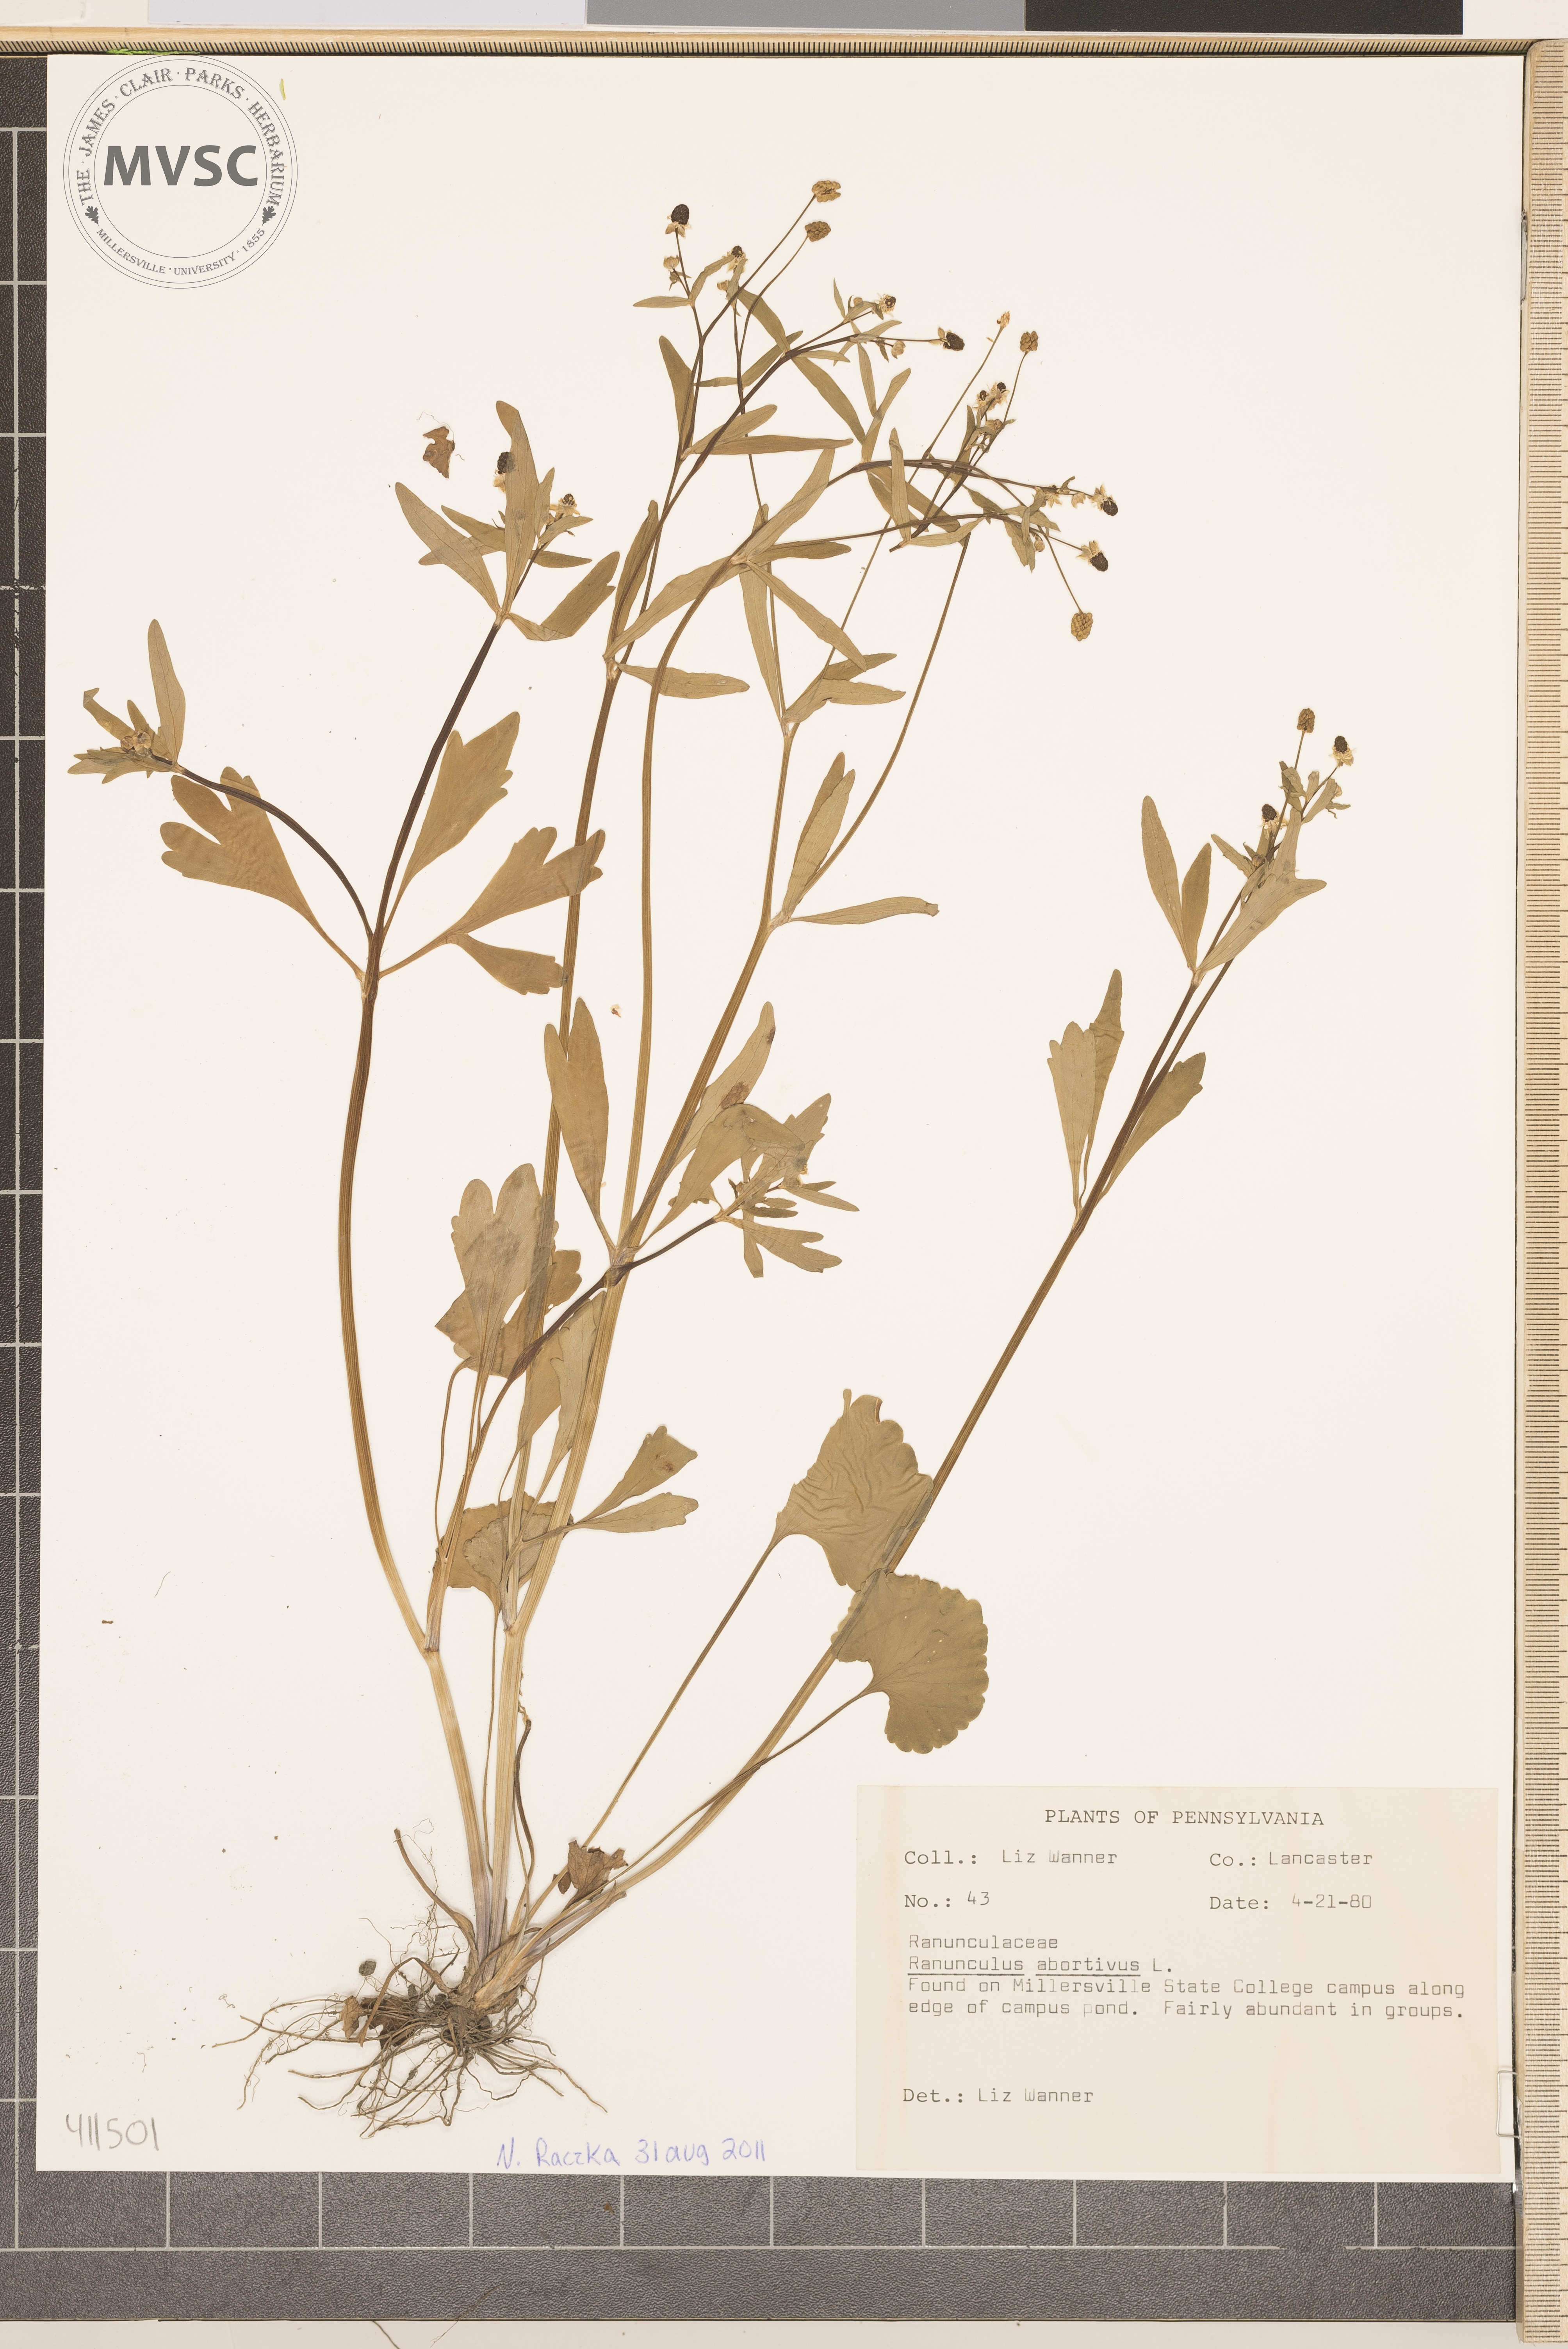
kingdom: Plantae
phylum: Tracheophyta
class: Magnoliopsida
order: Ranunculales
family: Ranunculaceae
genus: Ranunculus
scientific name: Ranunculus abortivus
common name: Small-flowered crowfoot
